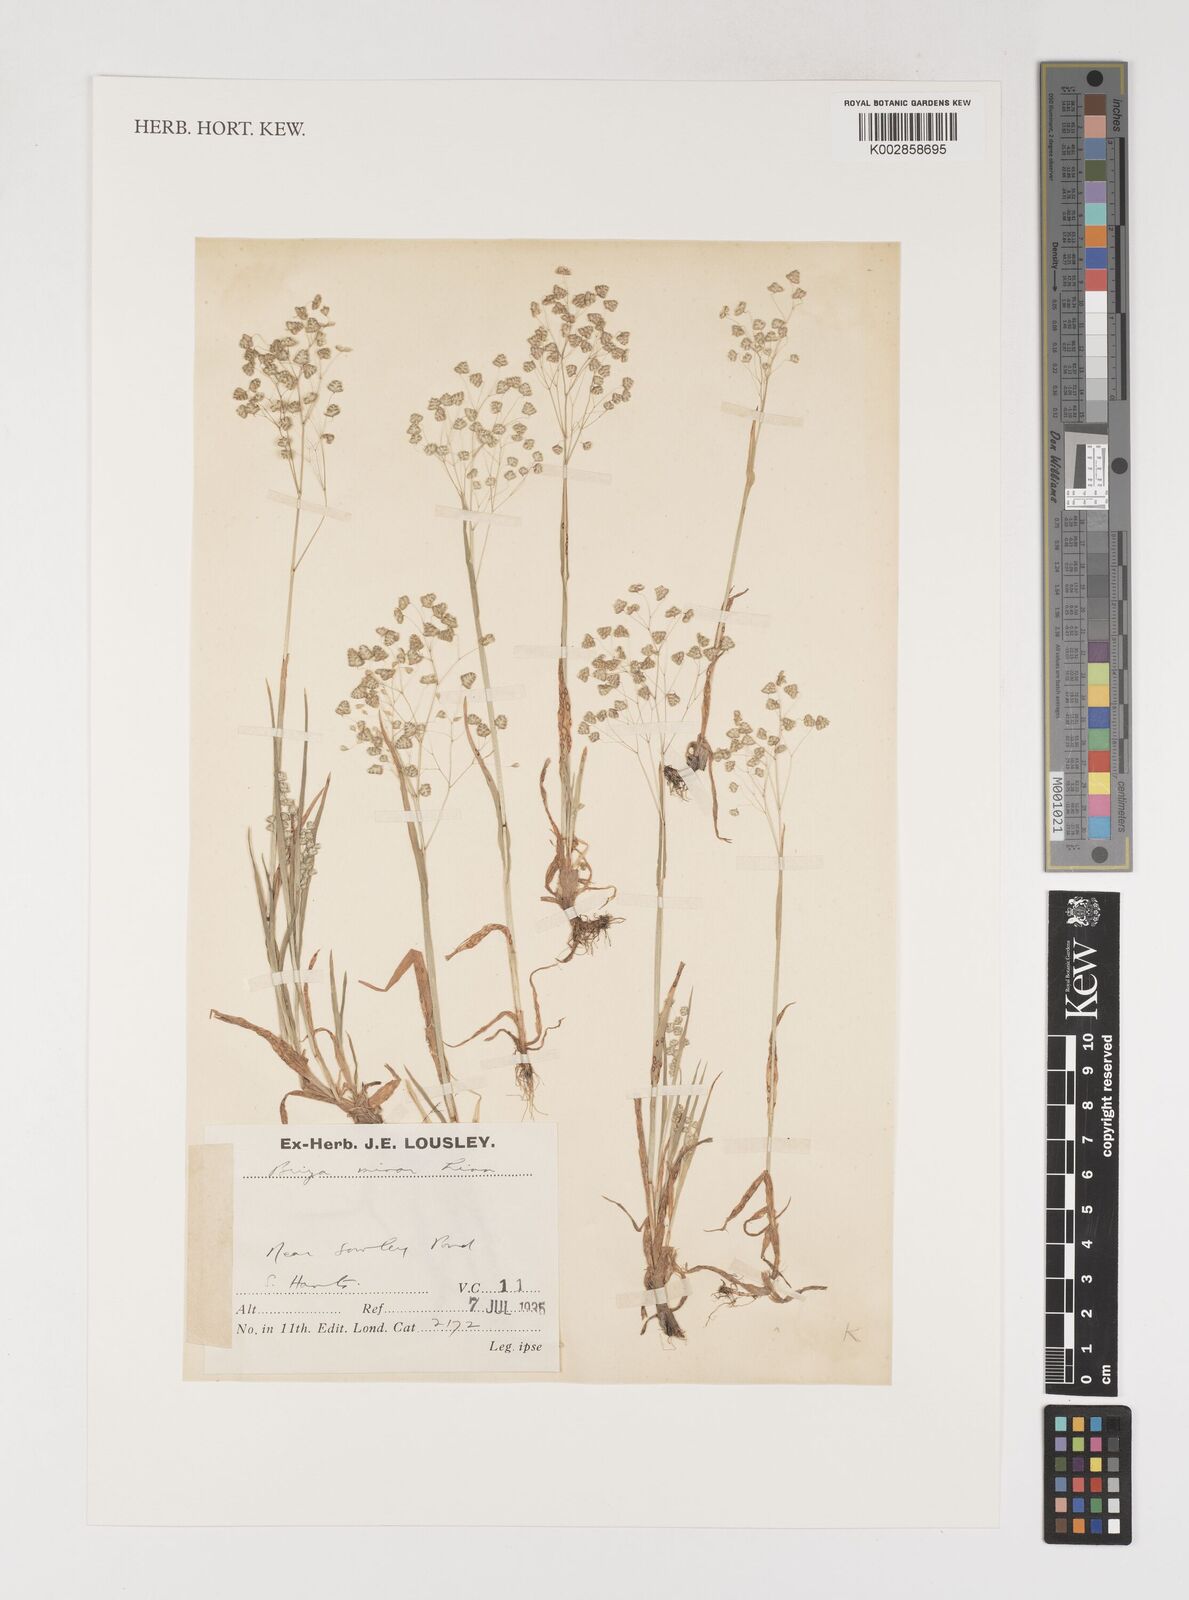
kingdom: Plantae
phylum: Tracheophyta
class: Liliopsida
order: Poales
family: Poaceae
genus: Briza
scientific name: Briza minor
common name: Lesser quaking-grass
